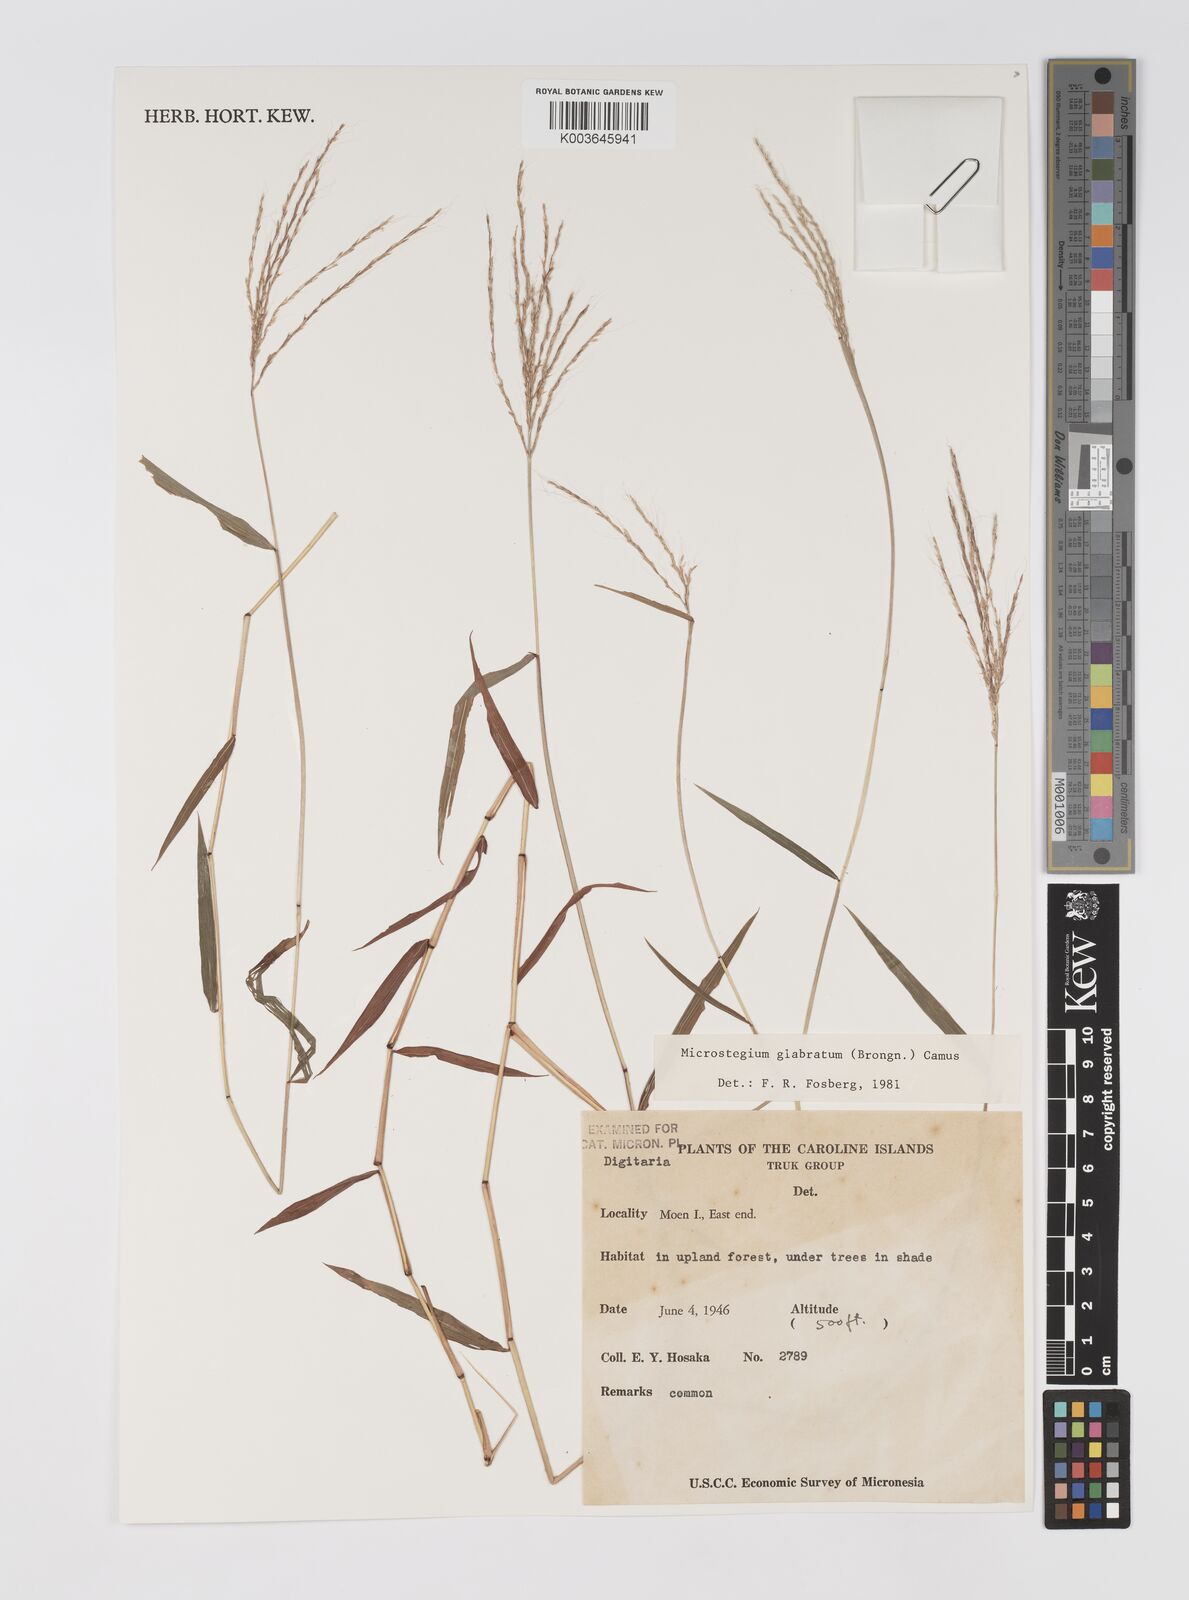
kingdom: Plantae
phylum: Tracheophyta
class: Liliopsida
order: Poales
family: Poaceae
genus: Microstegium
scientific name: Microstegium glabratum
